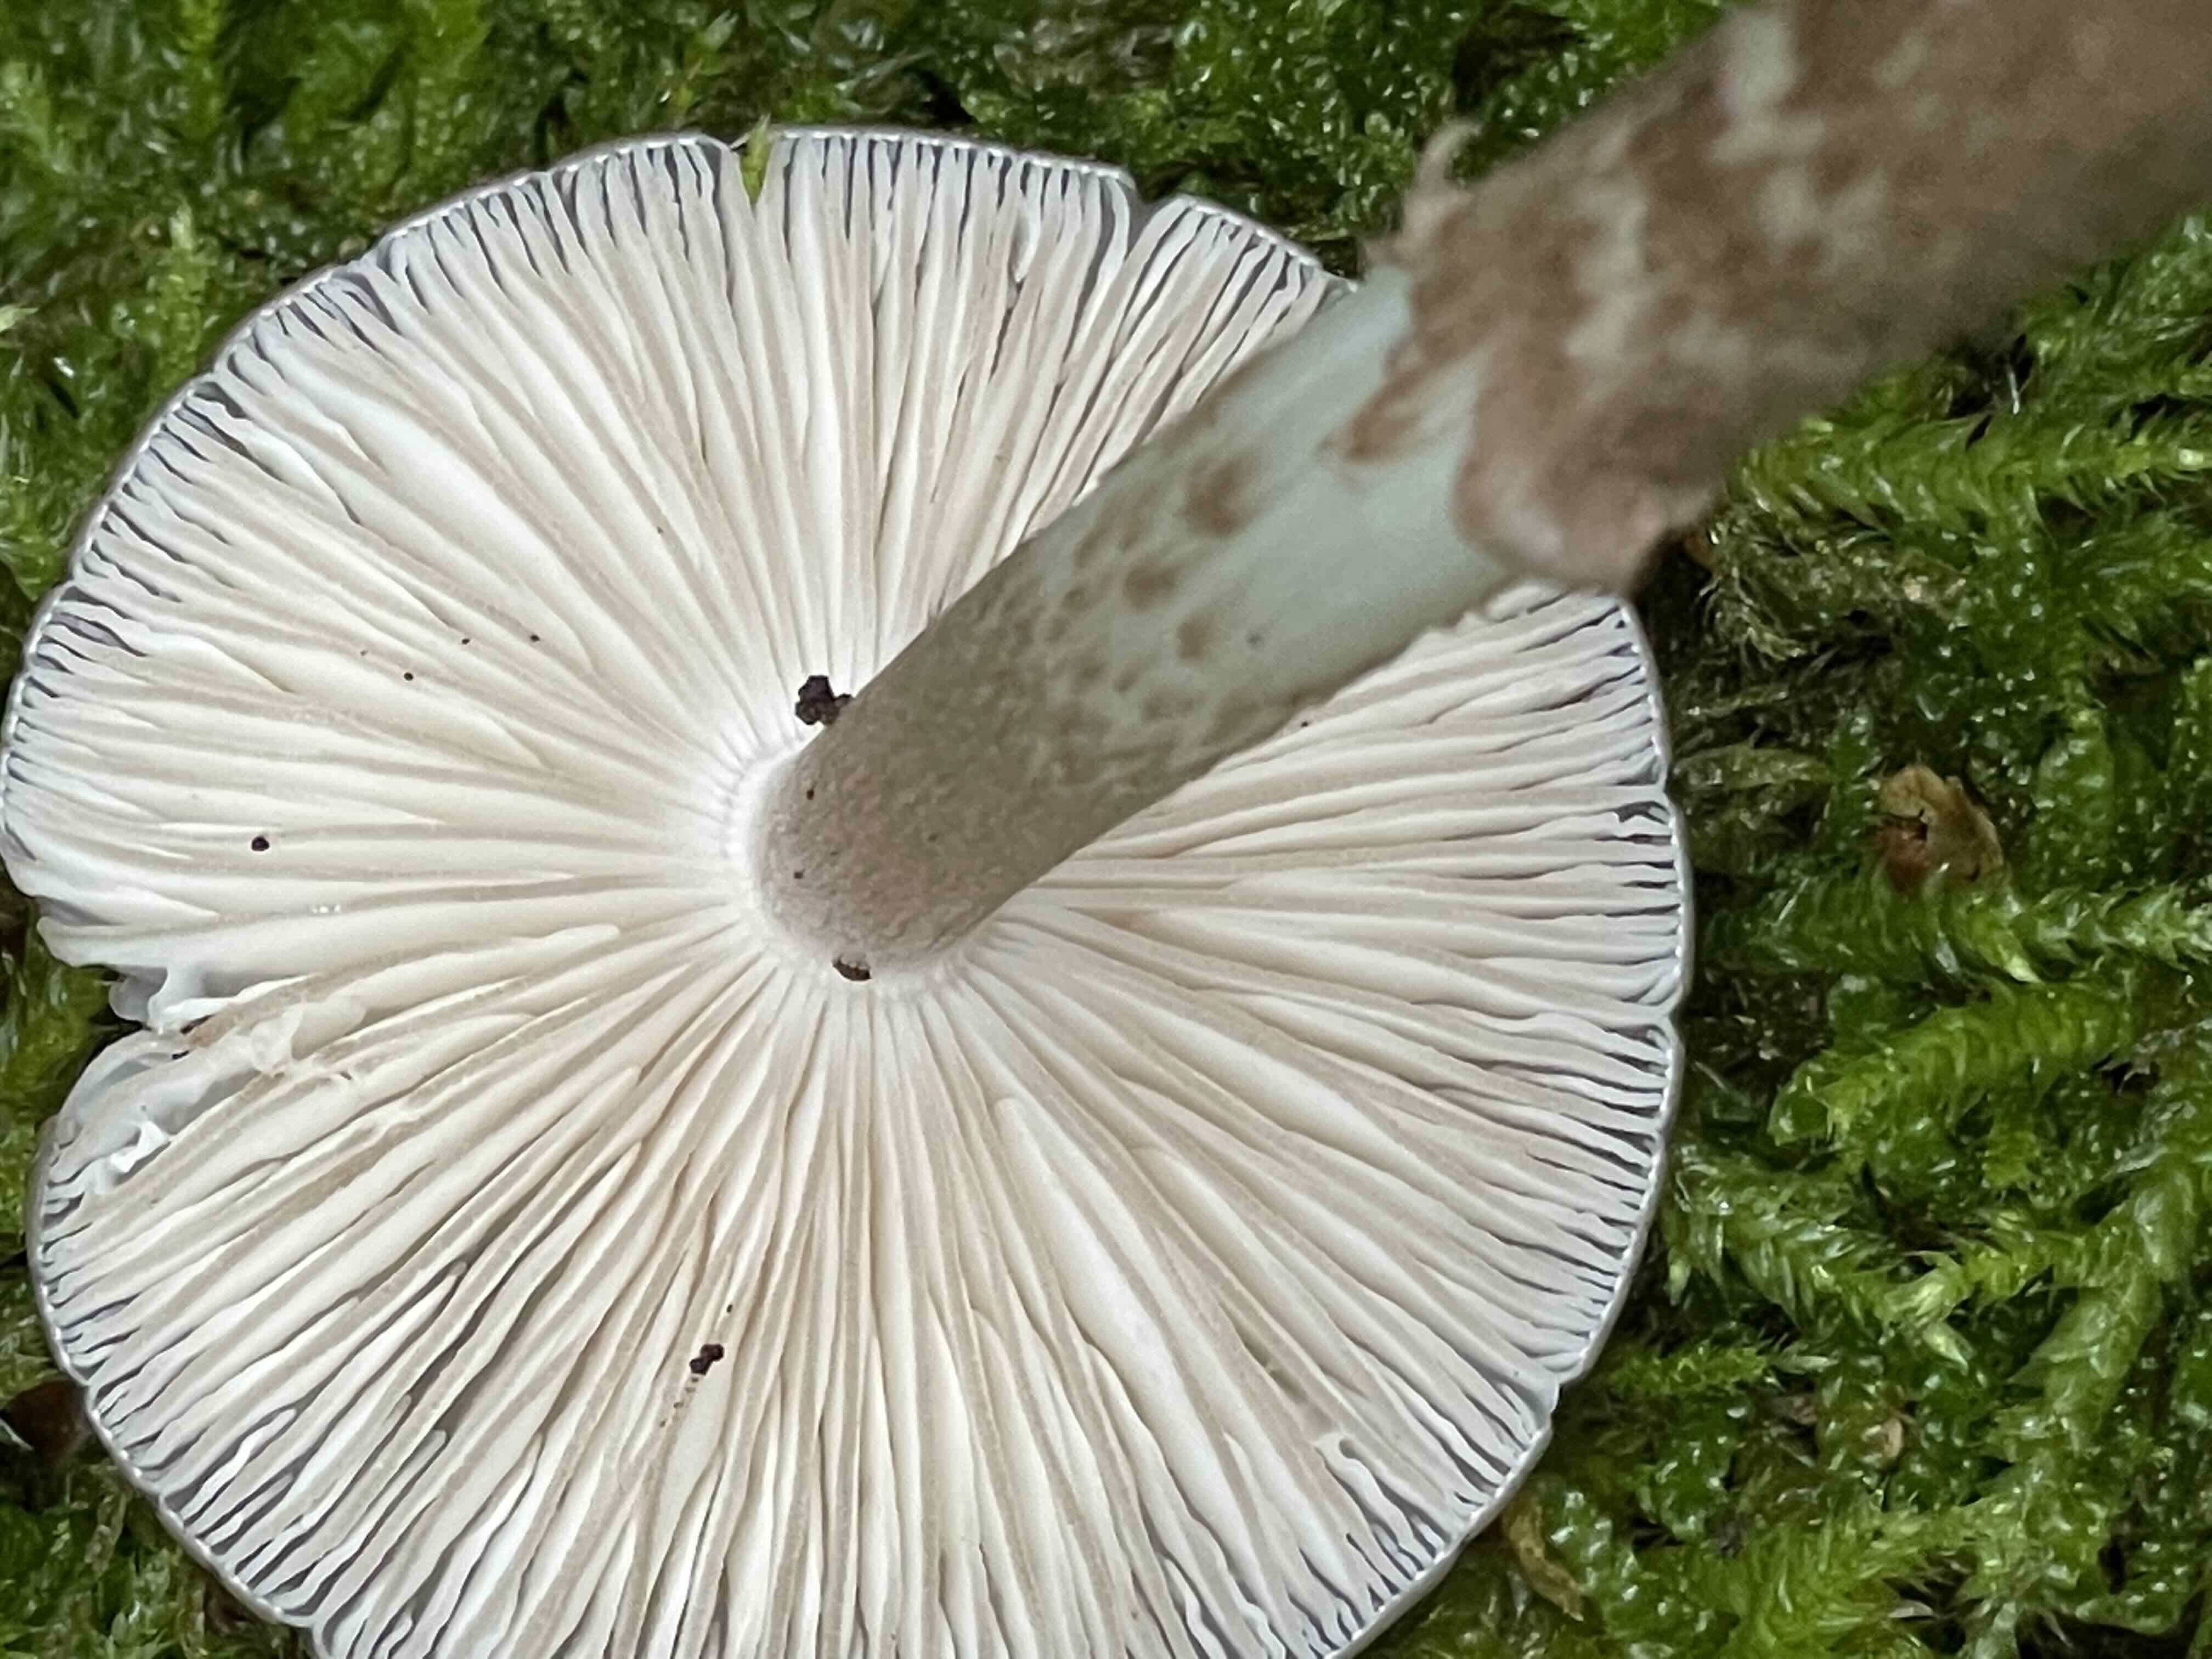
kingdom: Fungi
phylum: Basidiomycota
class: Agaricomycetes
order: Agaricales
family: Physalacriaceae
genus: Hymenopellis
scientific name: Hymenopellis radicata
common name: almindelig pælerodshat
